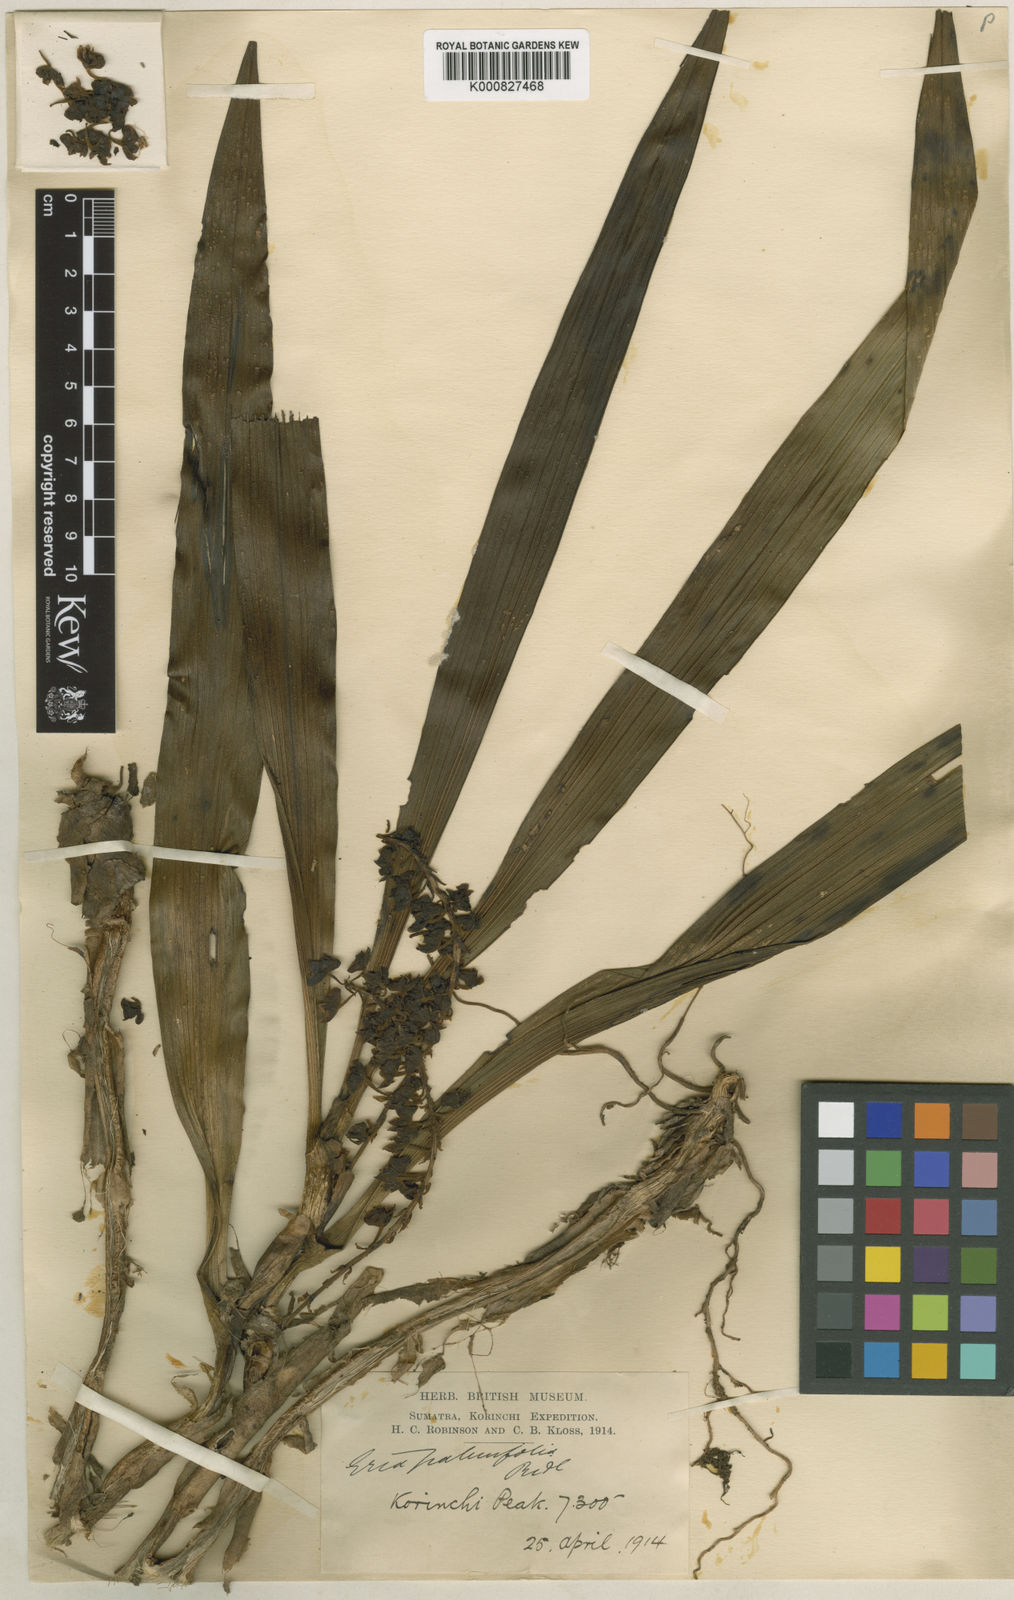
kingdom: Plantae
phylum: Tracheophyta
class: Liliopsida
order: Asparagales
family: Orchidaceae
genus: Pinalia
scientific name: Pinalia palmifolia
